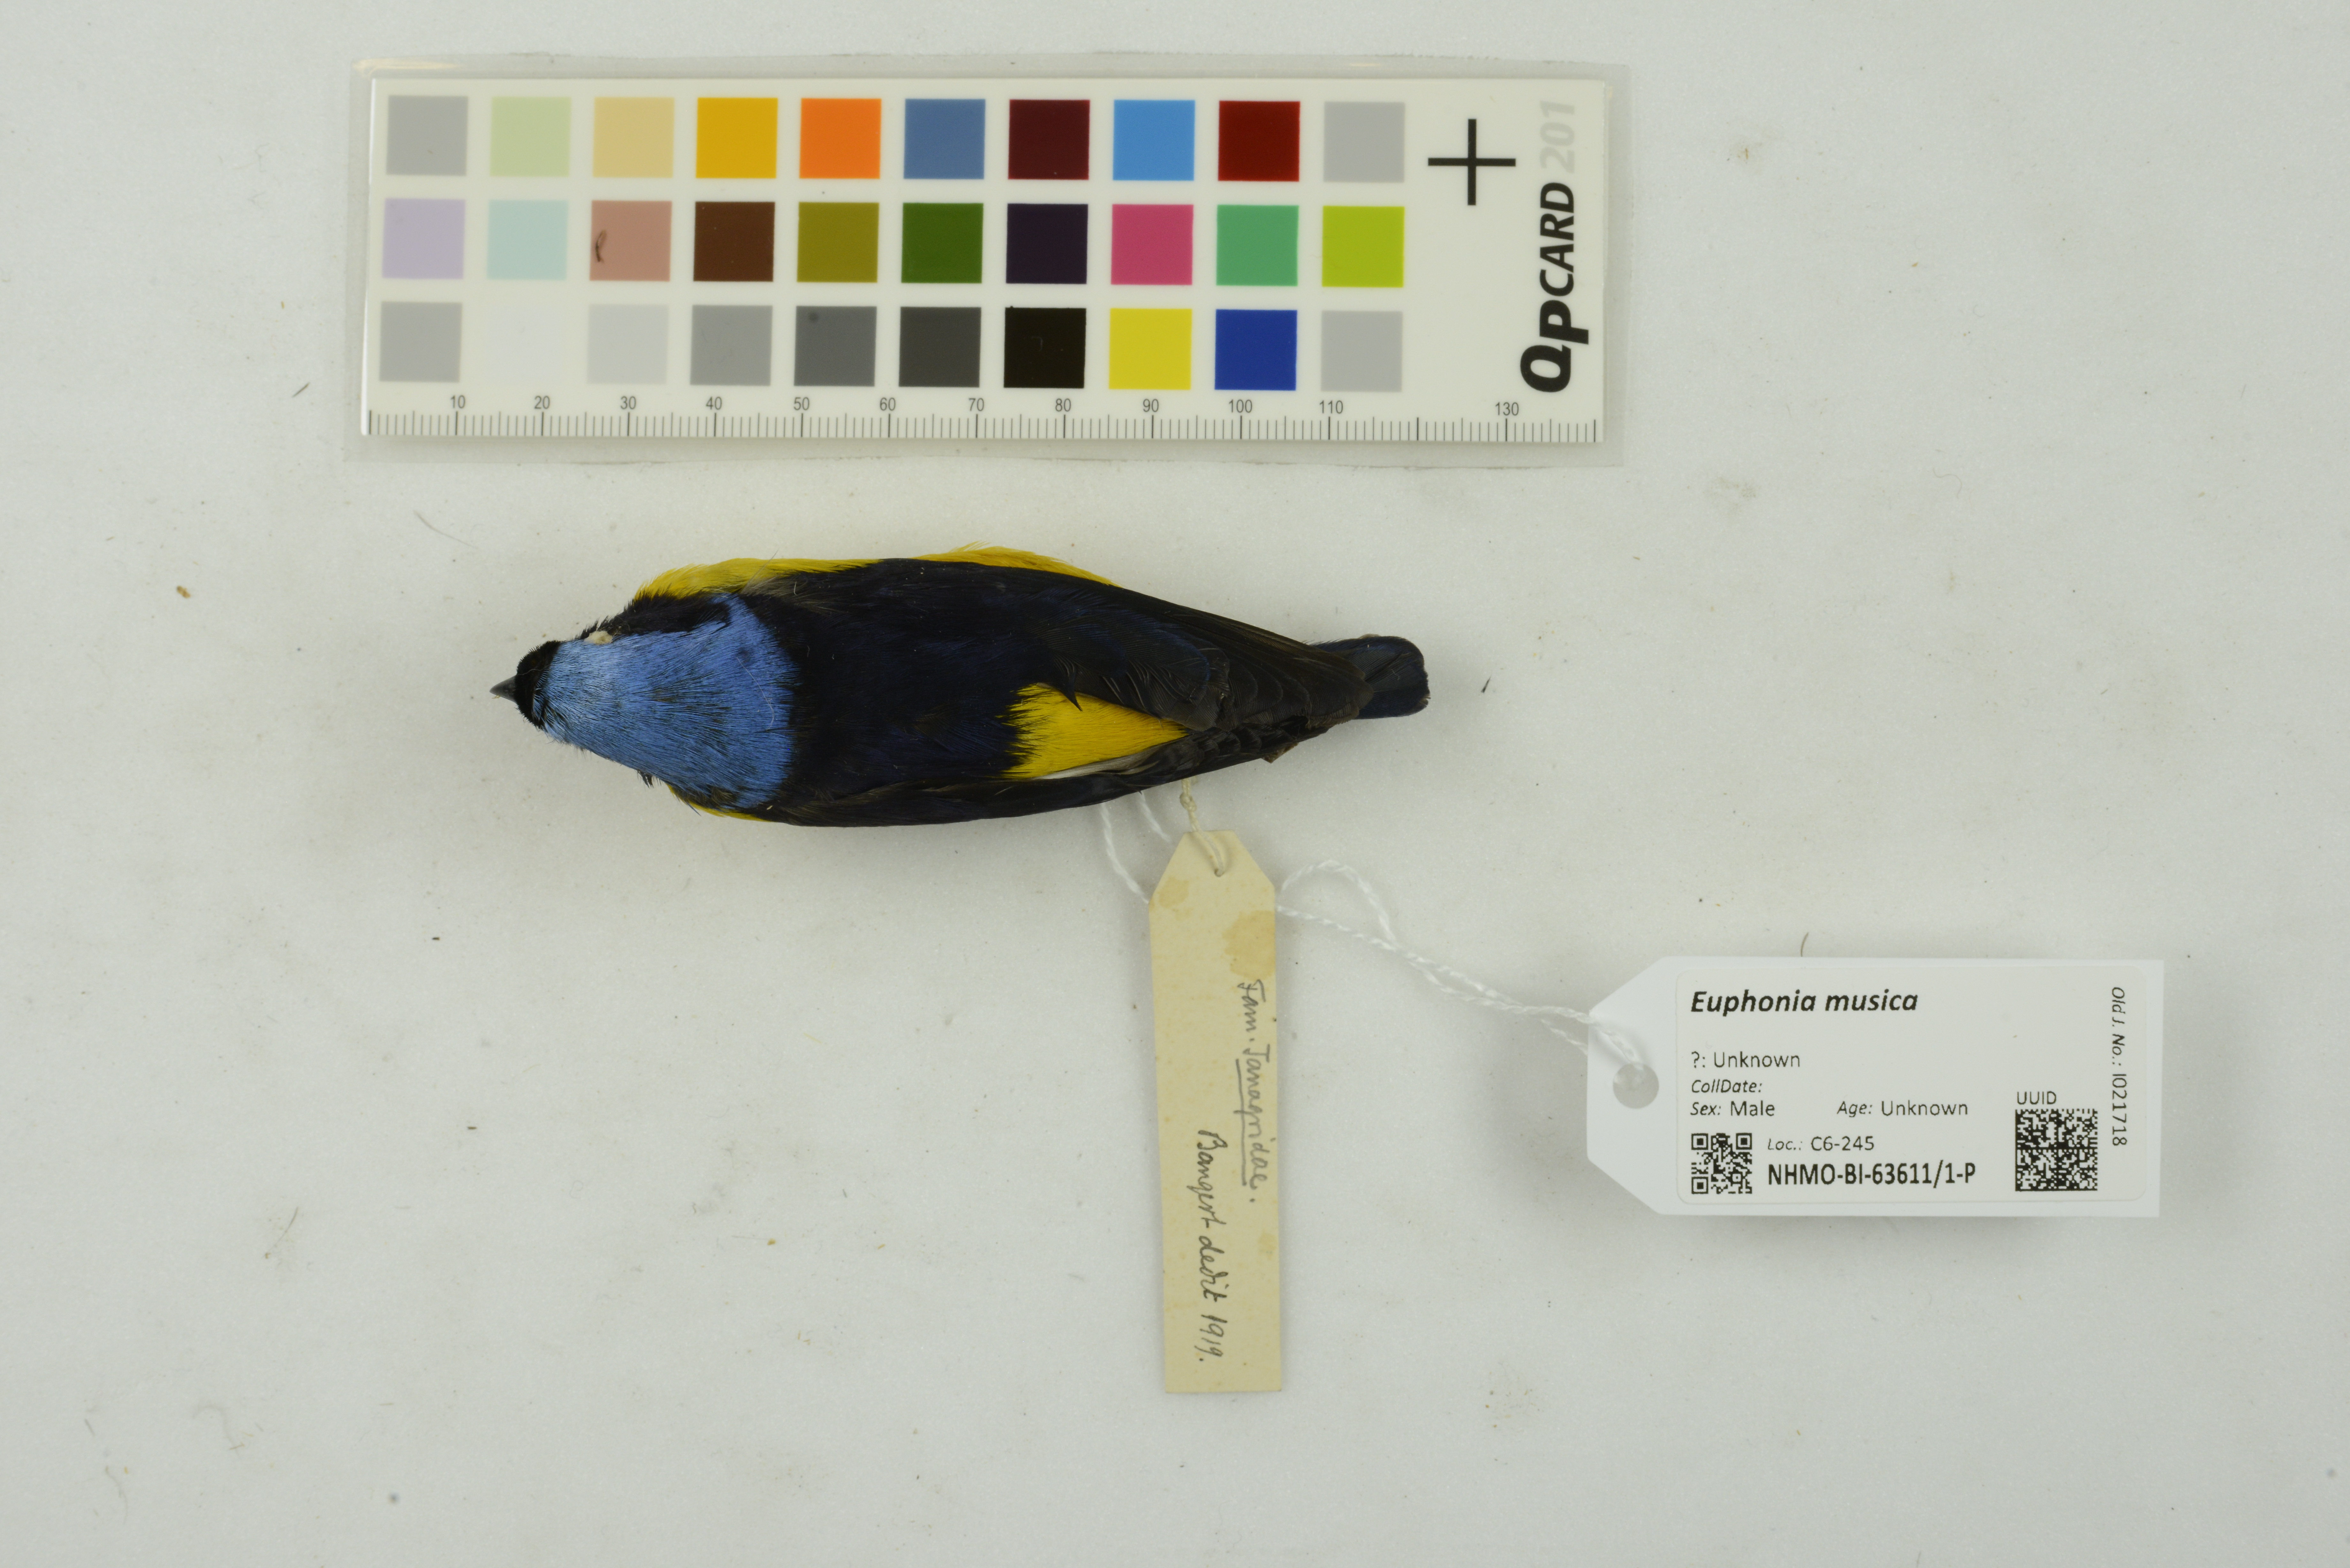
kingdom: Animalia
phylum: Chordata
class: Aves
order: Passeriformes
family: Fringillidae
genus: Euphonia
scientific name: Euphonia musica
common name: Antillean euphonia
